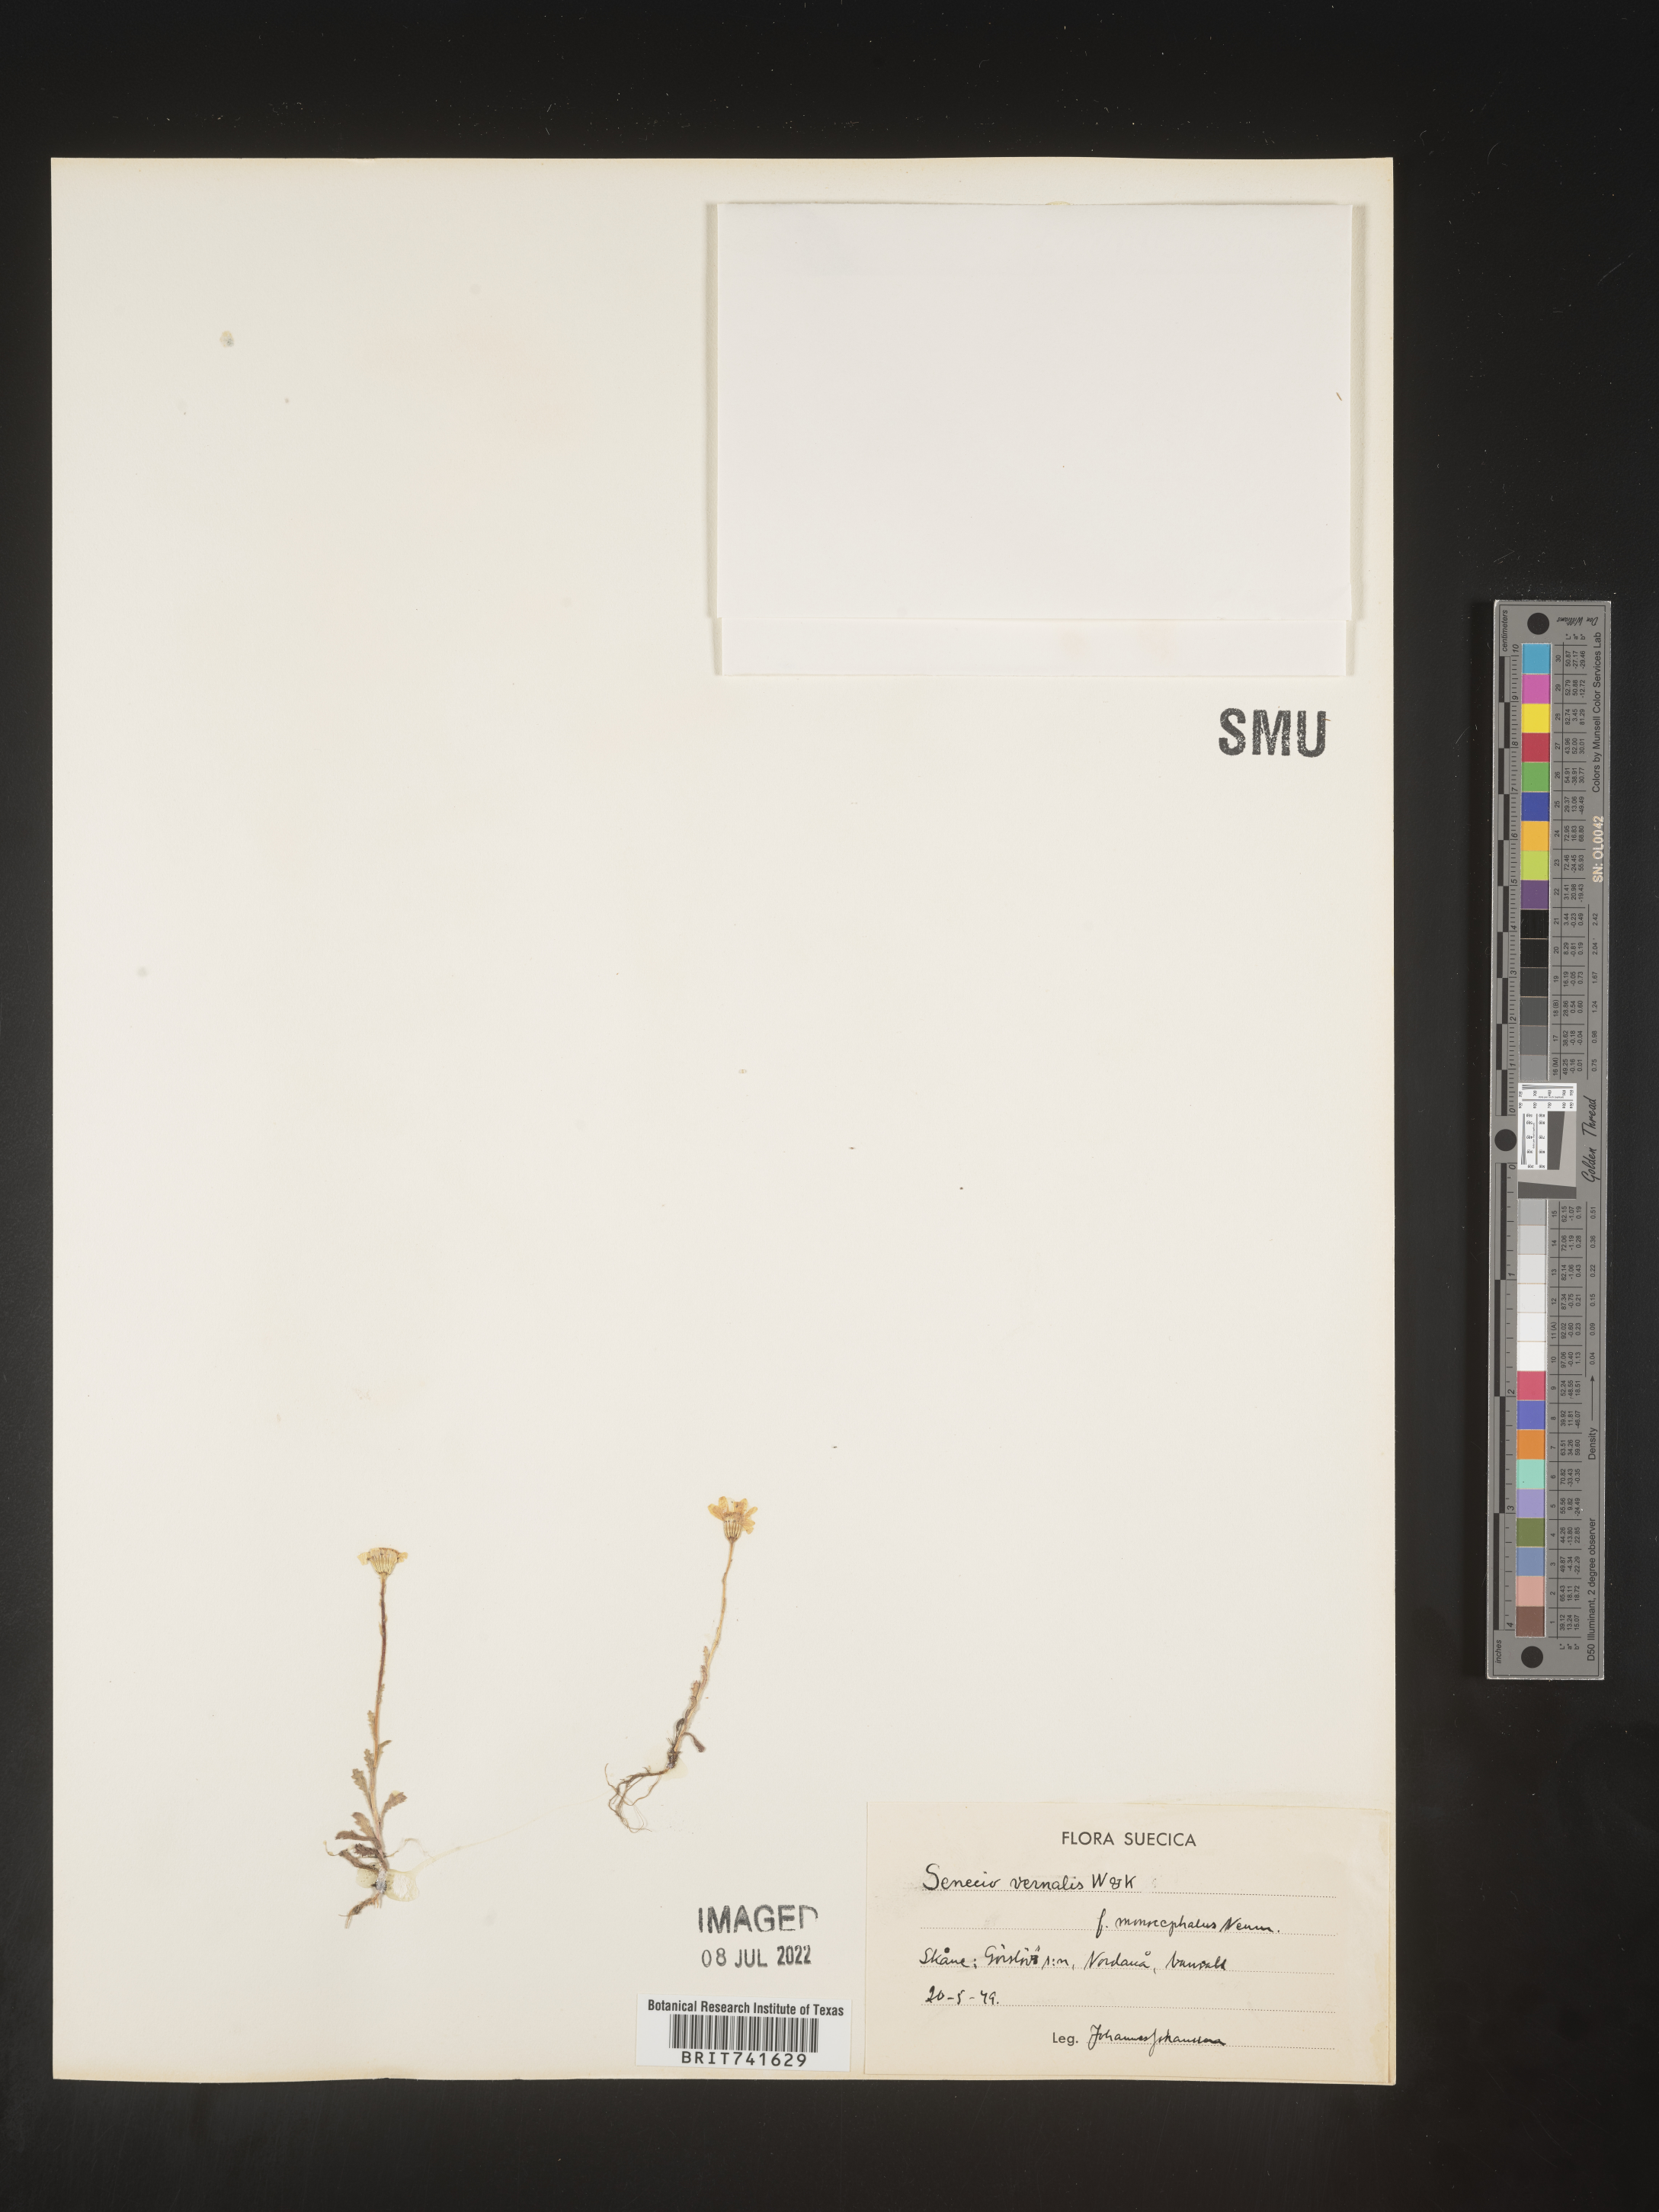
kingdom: Plantae
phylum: Tracheophyta
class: Magnoliopsida
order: Asterales
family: Asteraceae
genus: Senecio
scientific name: Senecio vernalis
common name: Eastern groundsel
